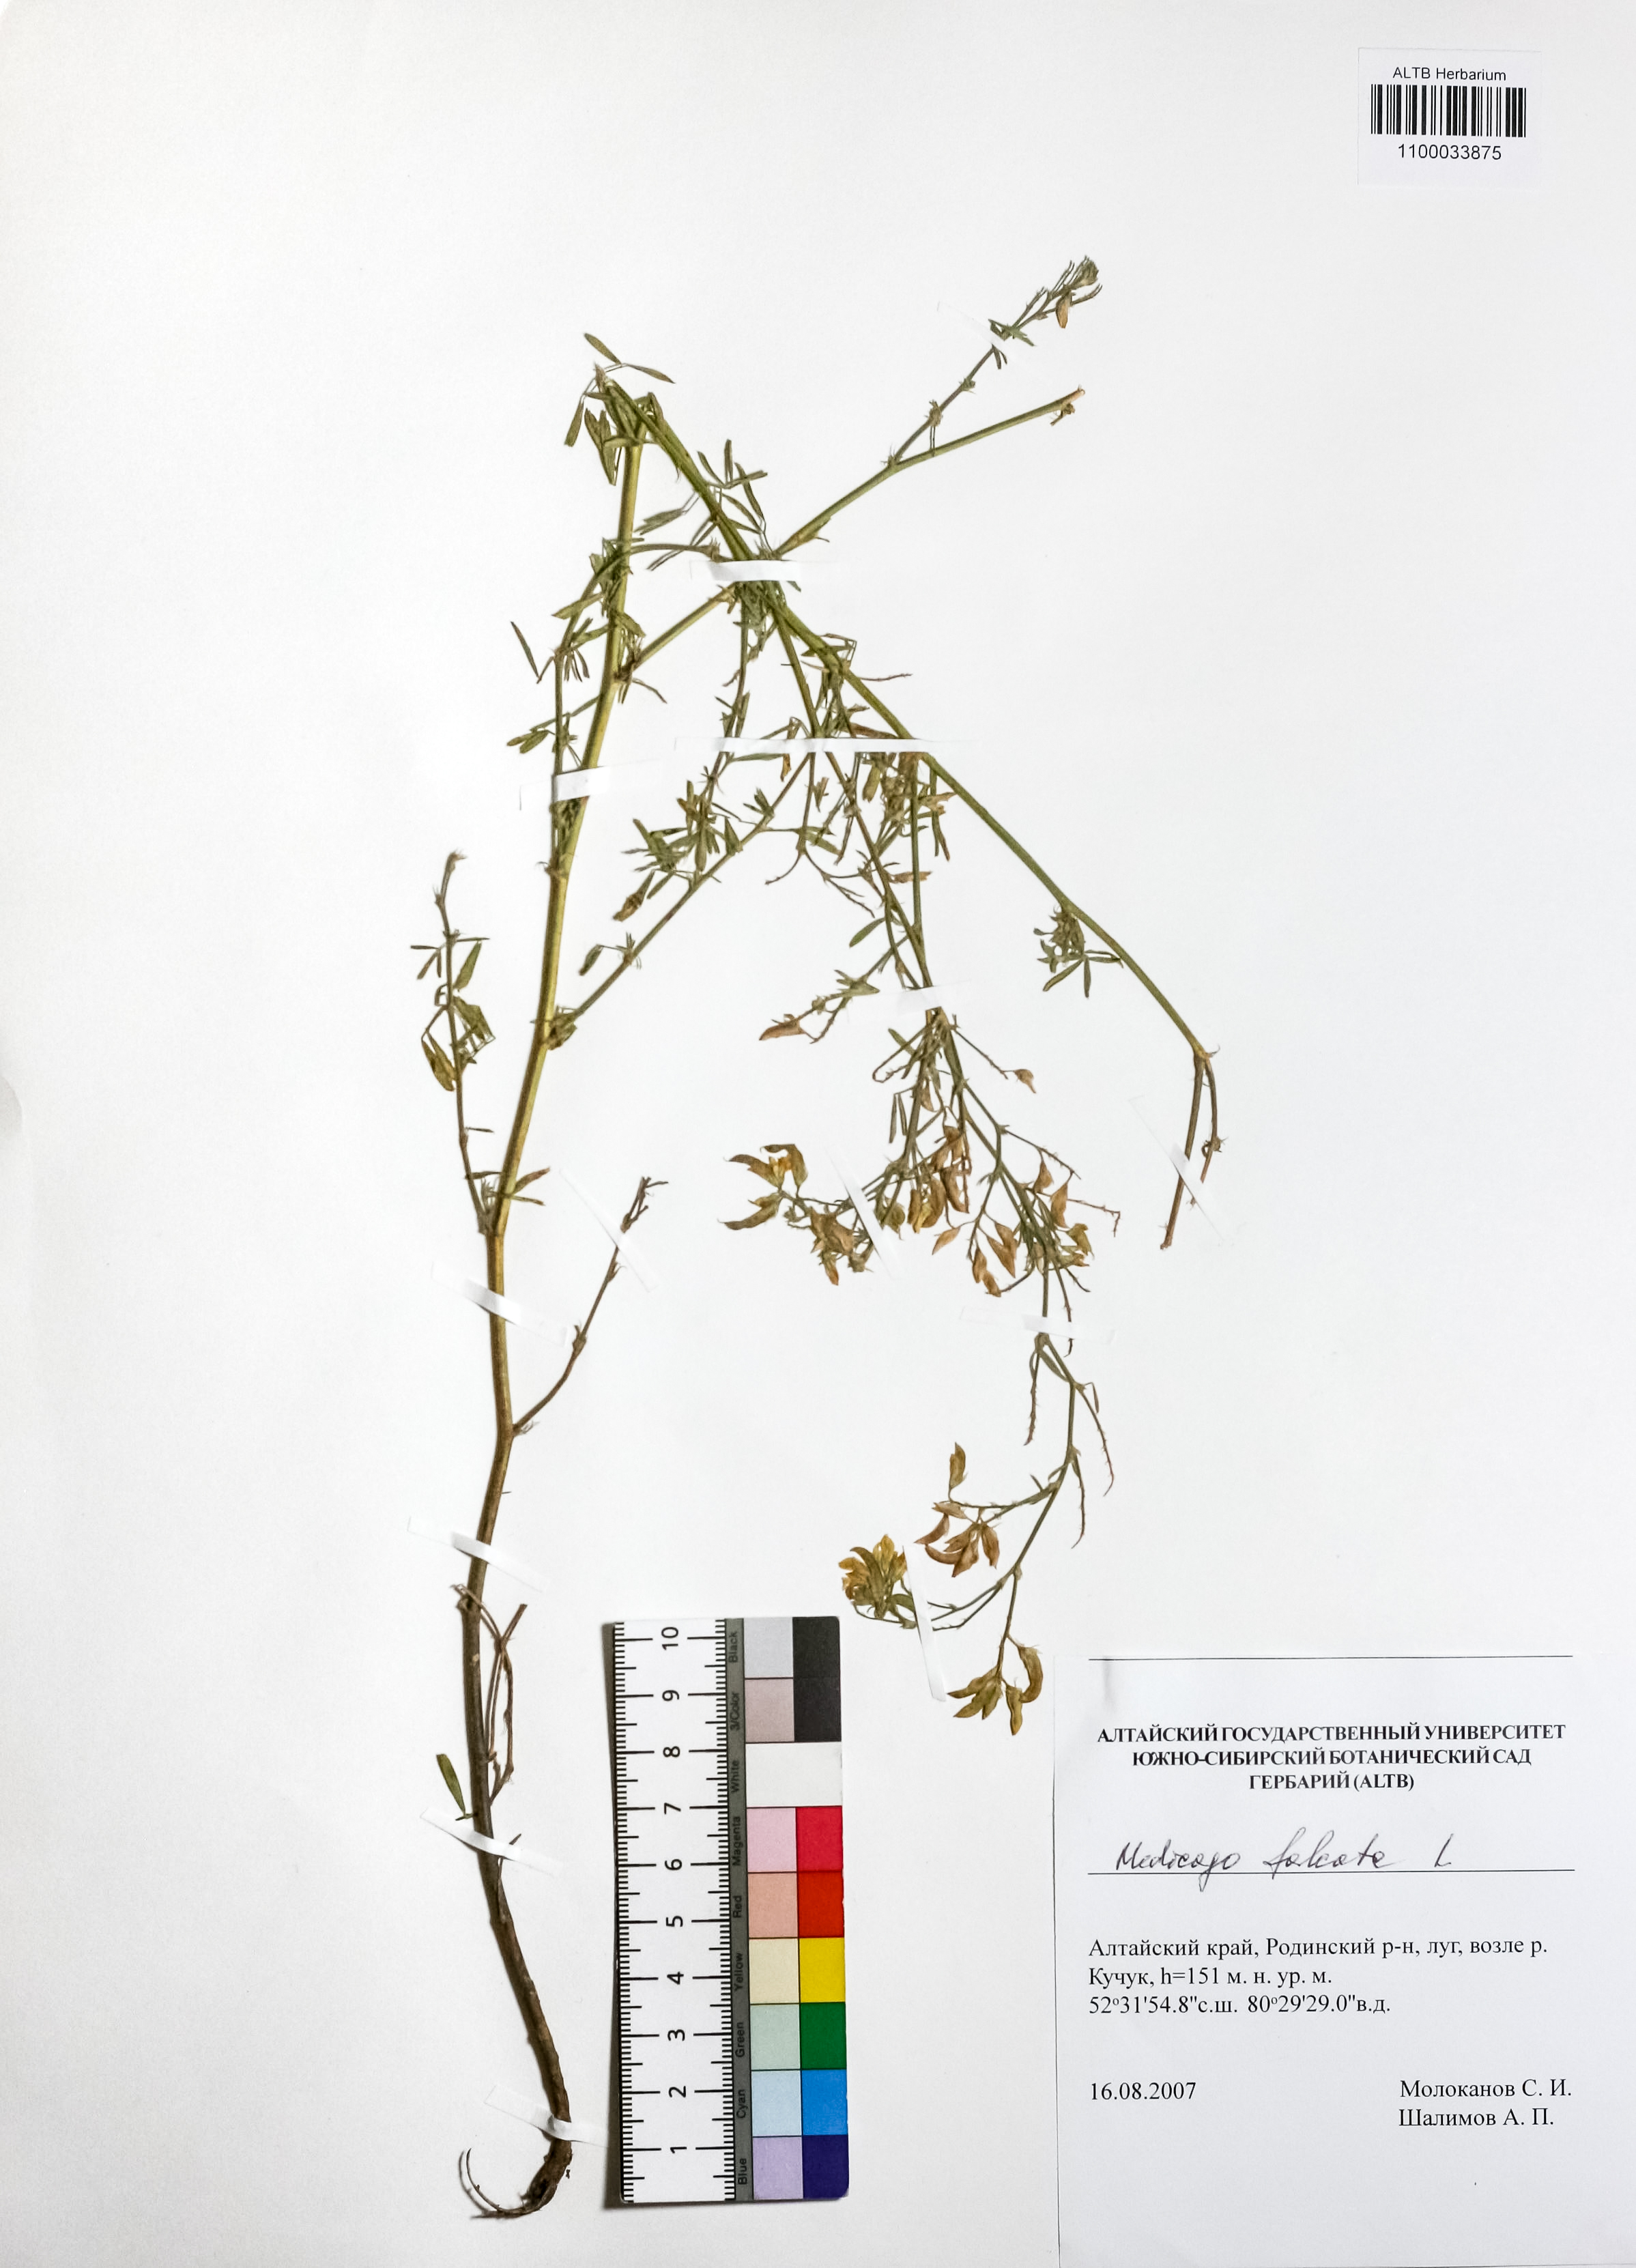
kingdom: Plantae
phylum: Tracheophyta
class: Magnoliopsida
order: Fabales
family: Fabaceae
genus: Medicago
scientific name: Medicago falcata
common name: Sickle medick
